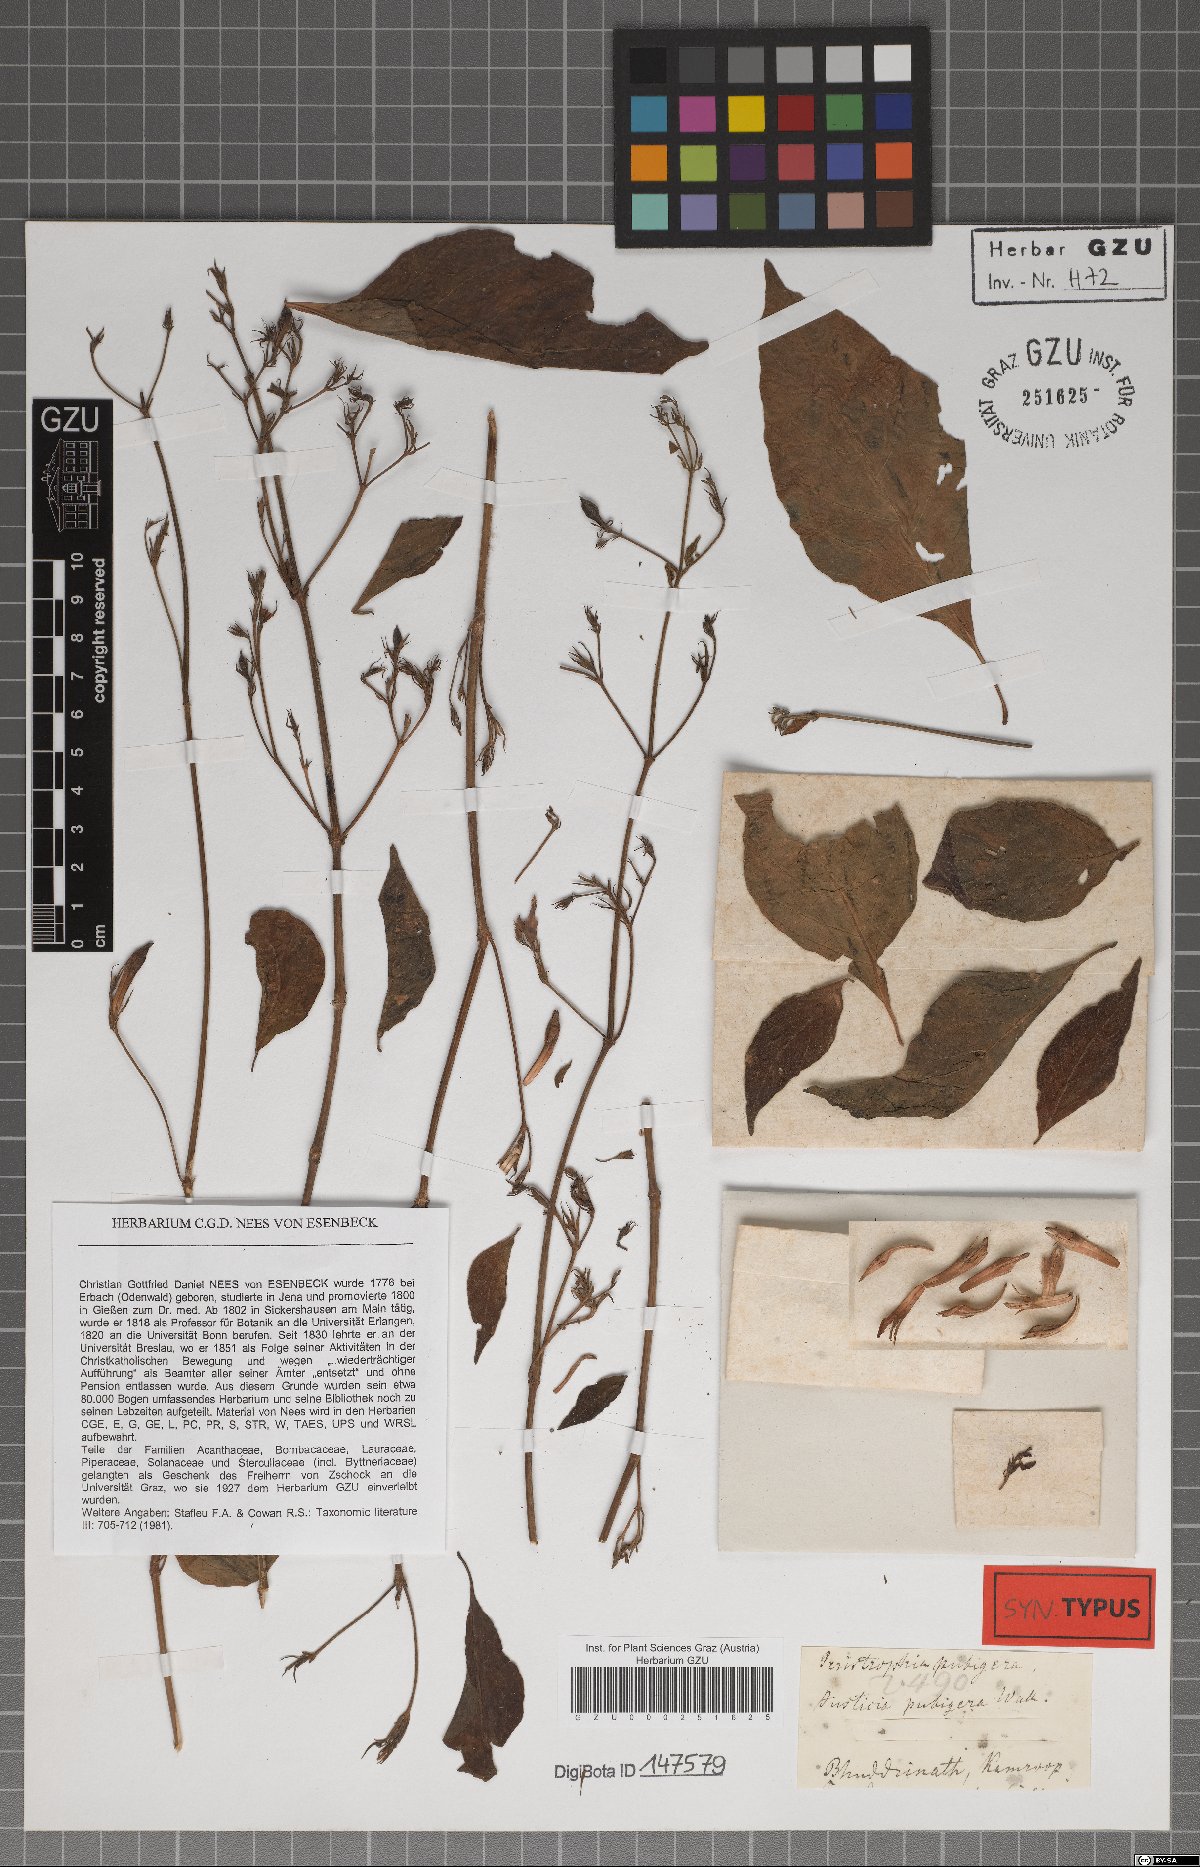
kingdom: Plantae
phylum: Tracheophyta
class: Magnoliopsida
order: Lamiales
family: Acanthaceae
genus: Justicia
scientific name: Justicia pubigera
